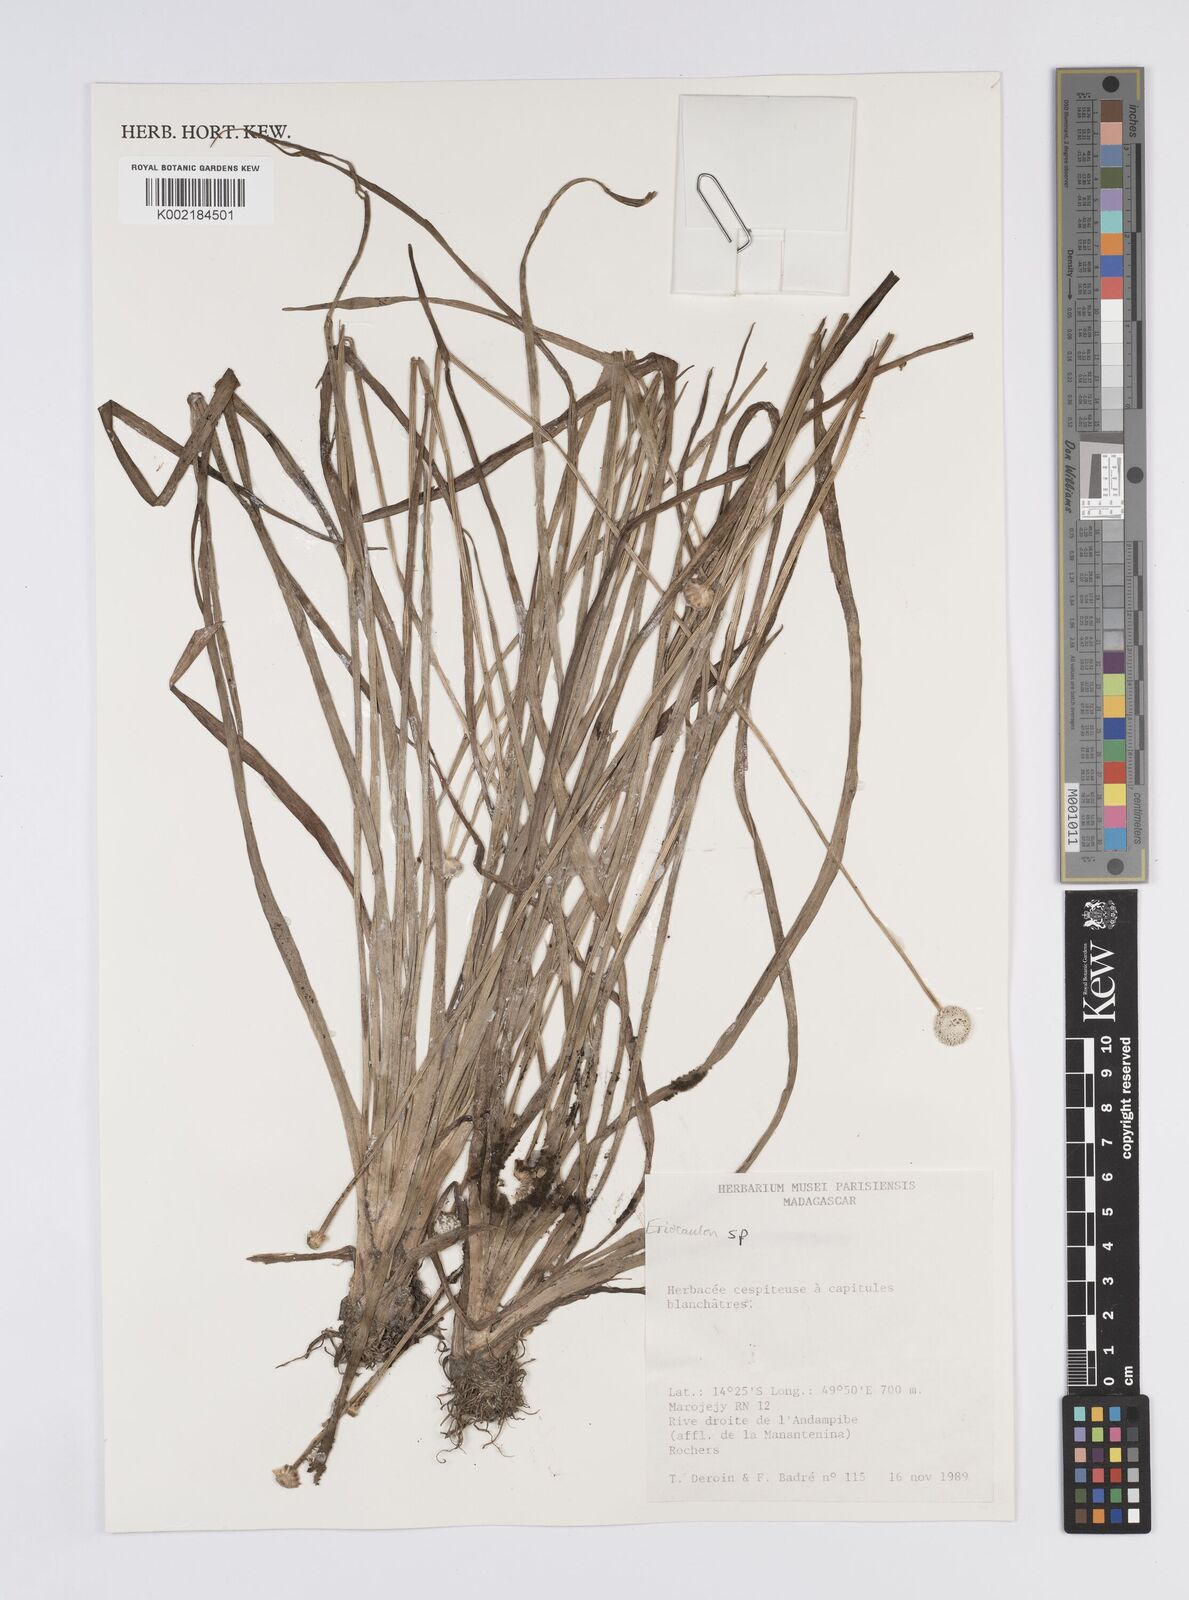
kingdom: Plantae
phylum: Tracheophyta
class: Liliopsida
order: Poales
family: Eriocaulaceae
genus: Eriocaulon
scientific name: Eriocaulon
